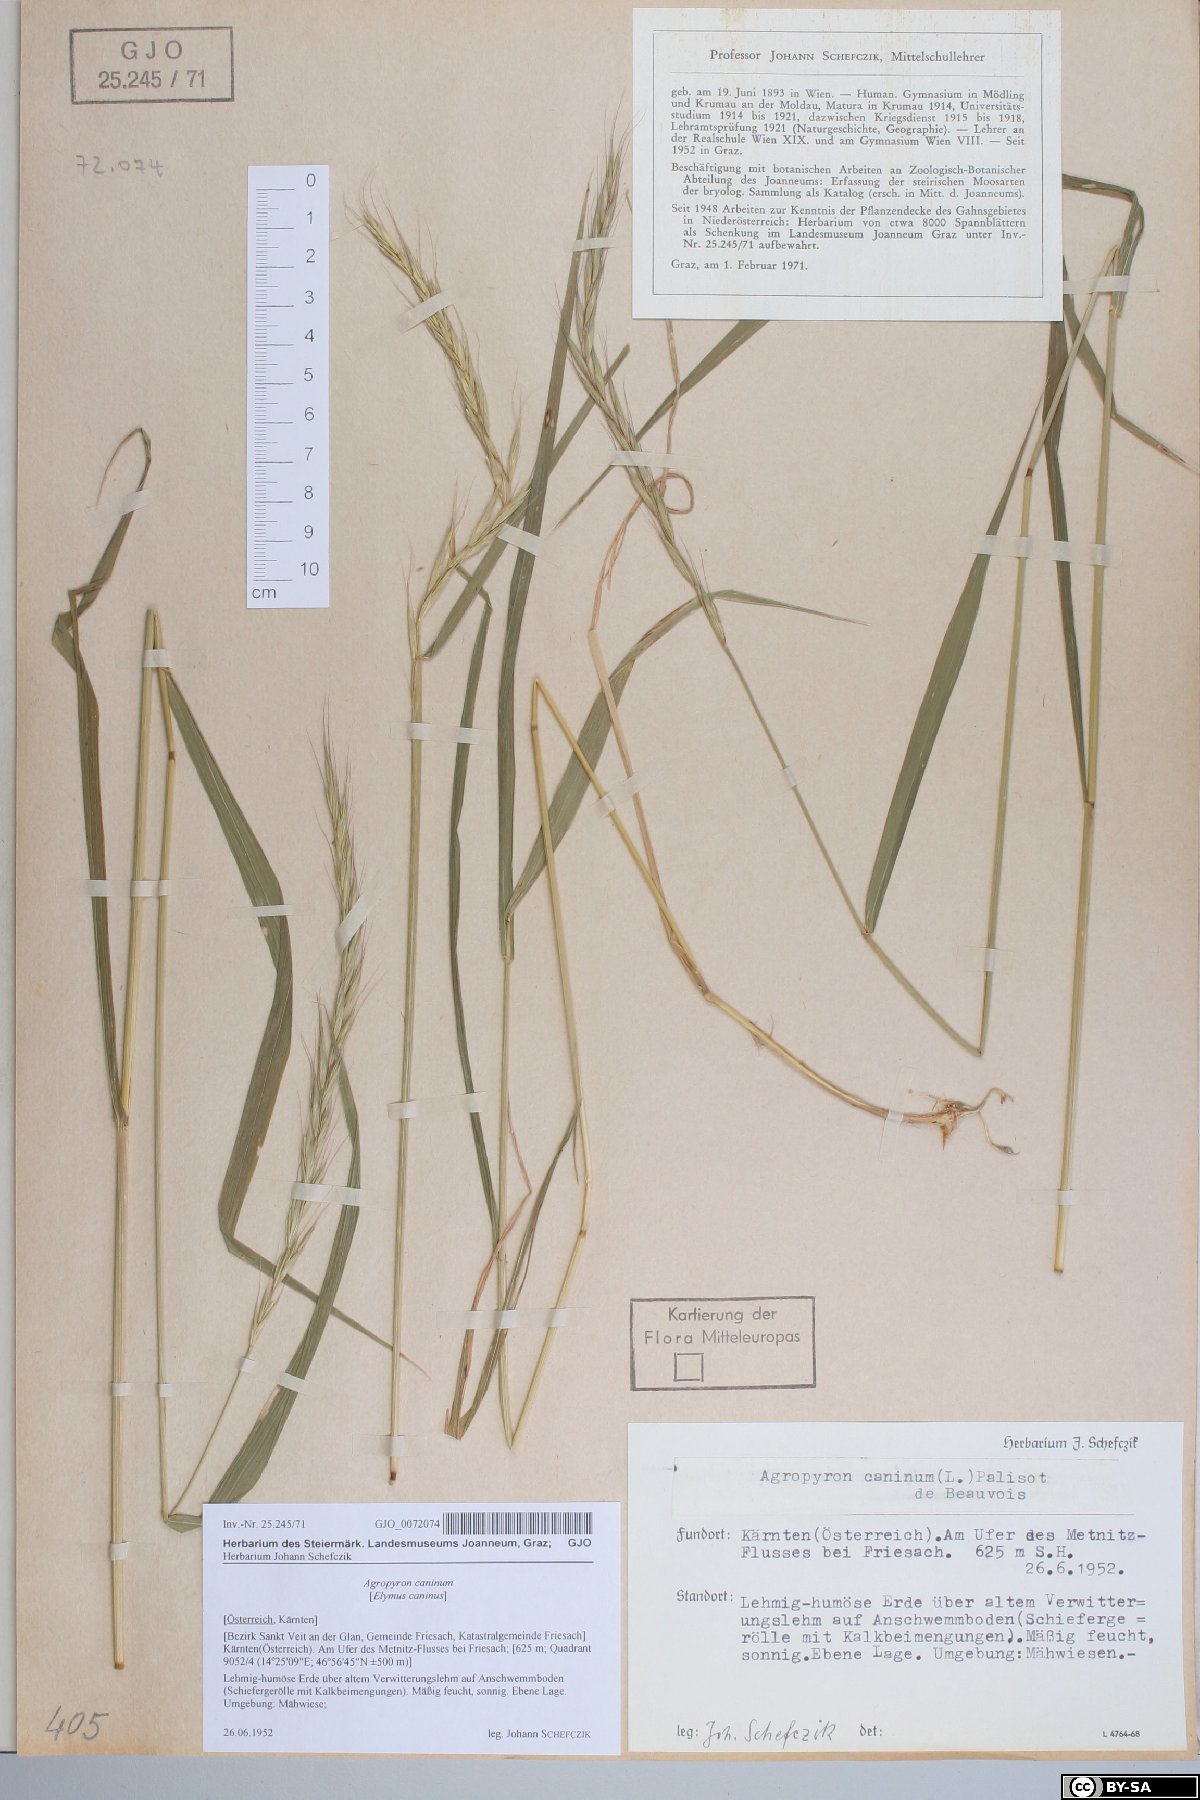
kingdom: Plantae
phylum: Tracheophyta
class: Liliopsida
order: Poales
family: Poaceae
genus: Elymus
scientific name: Elymus caninus
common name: Bearded couch
